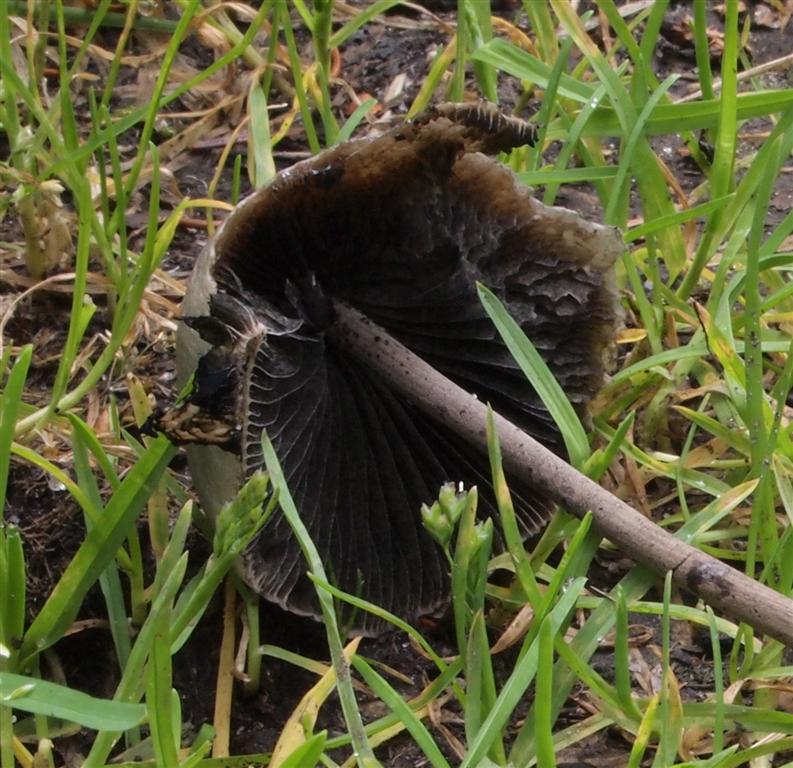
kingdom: Fungi
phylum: Basidiomycota
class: Agaricomycetes
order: Agaricales
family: Bolbitiaceae
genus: Panaeolus
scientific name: Panaeolus papilionaceus
